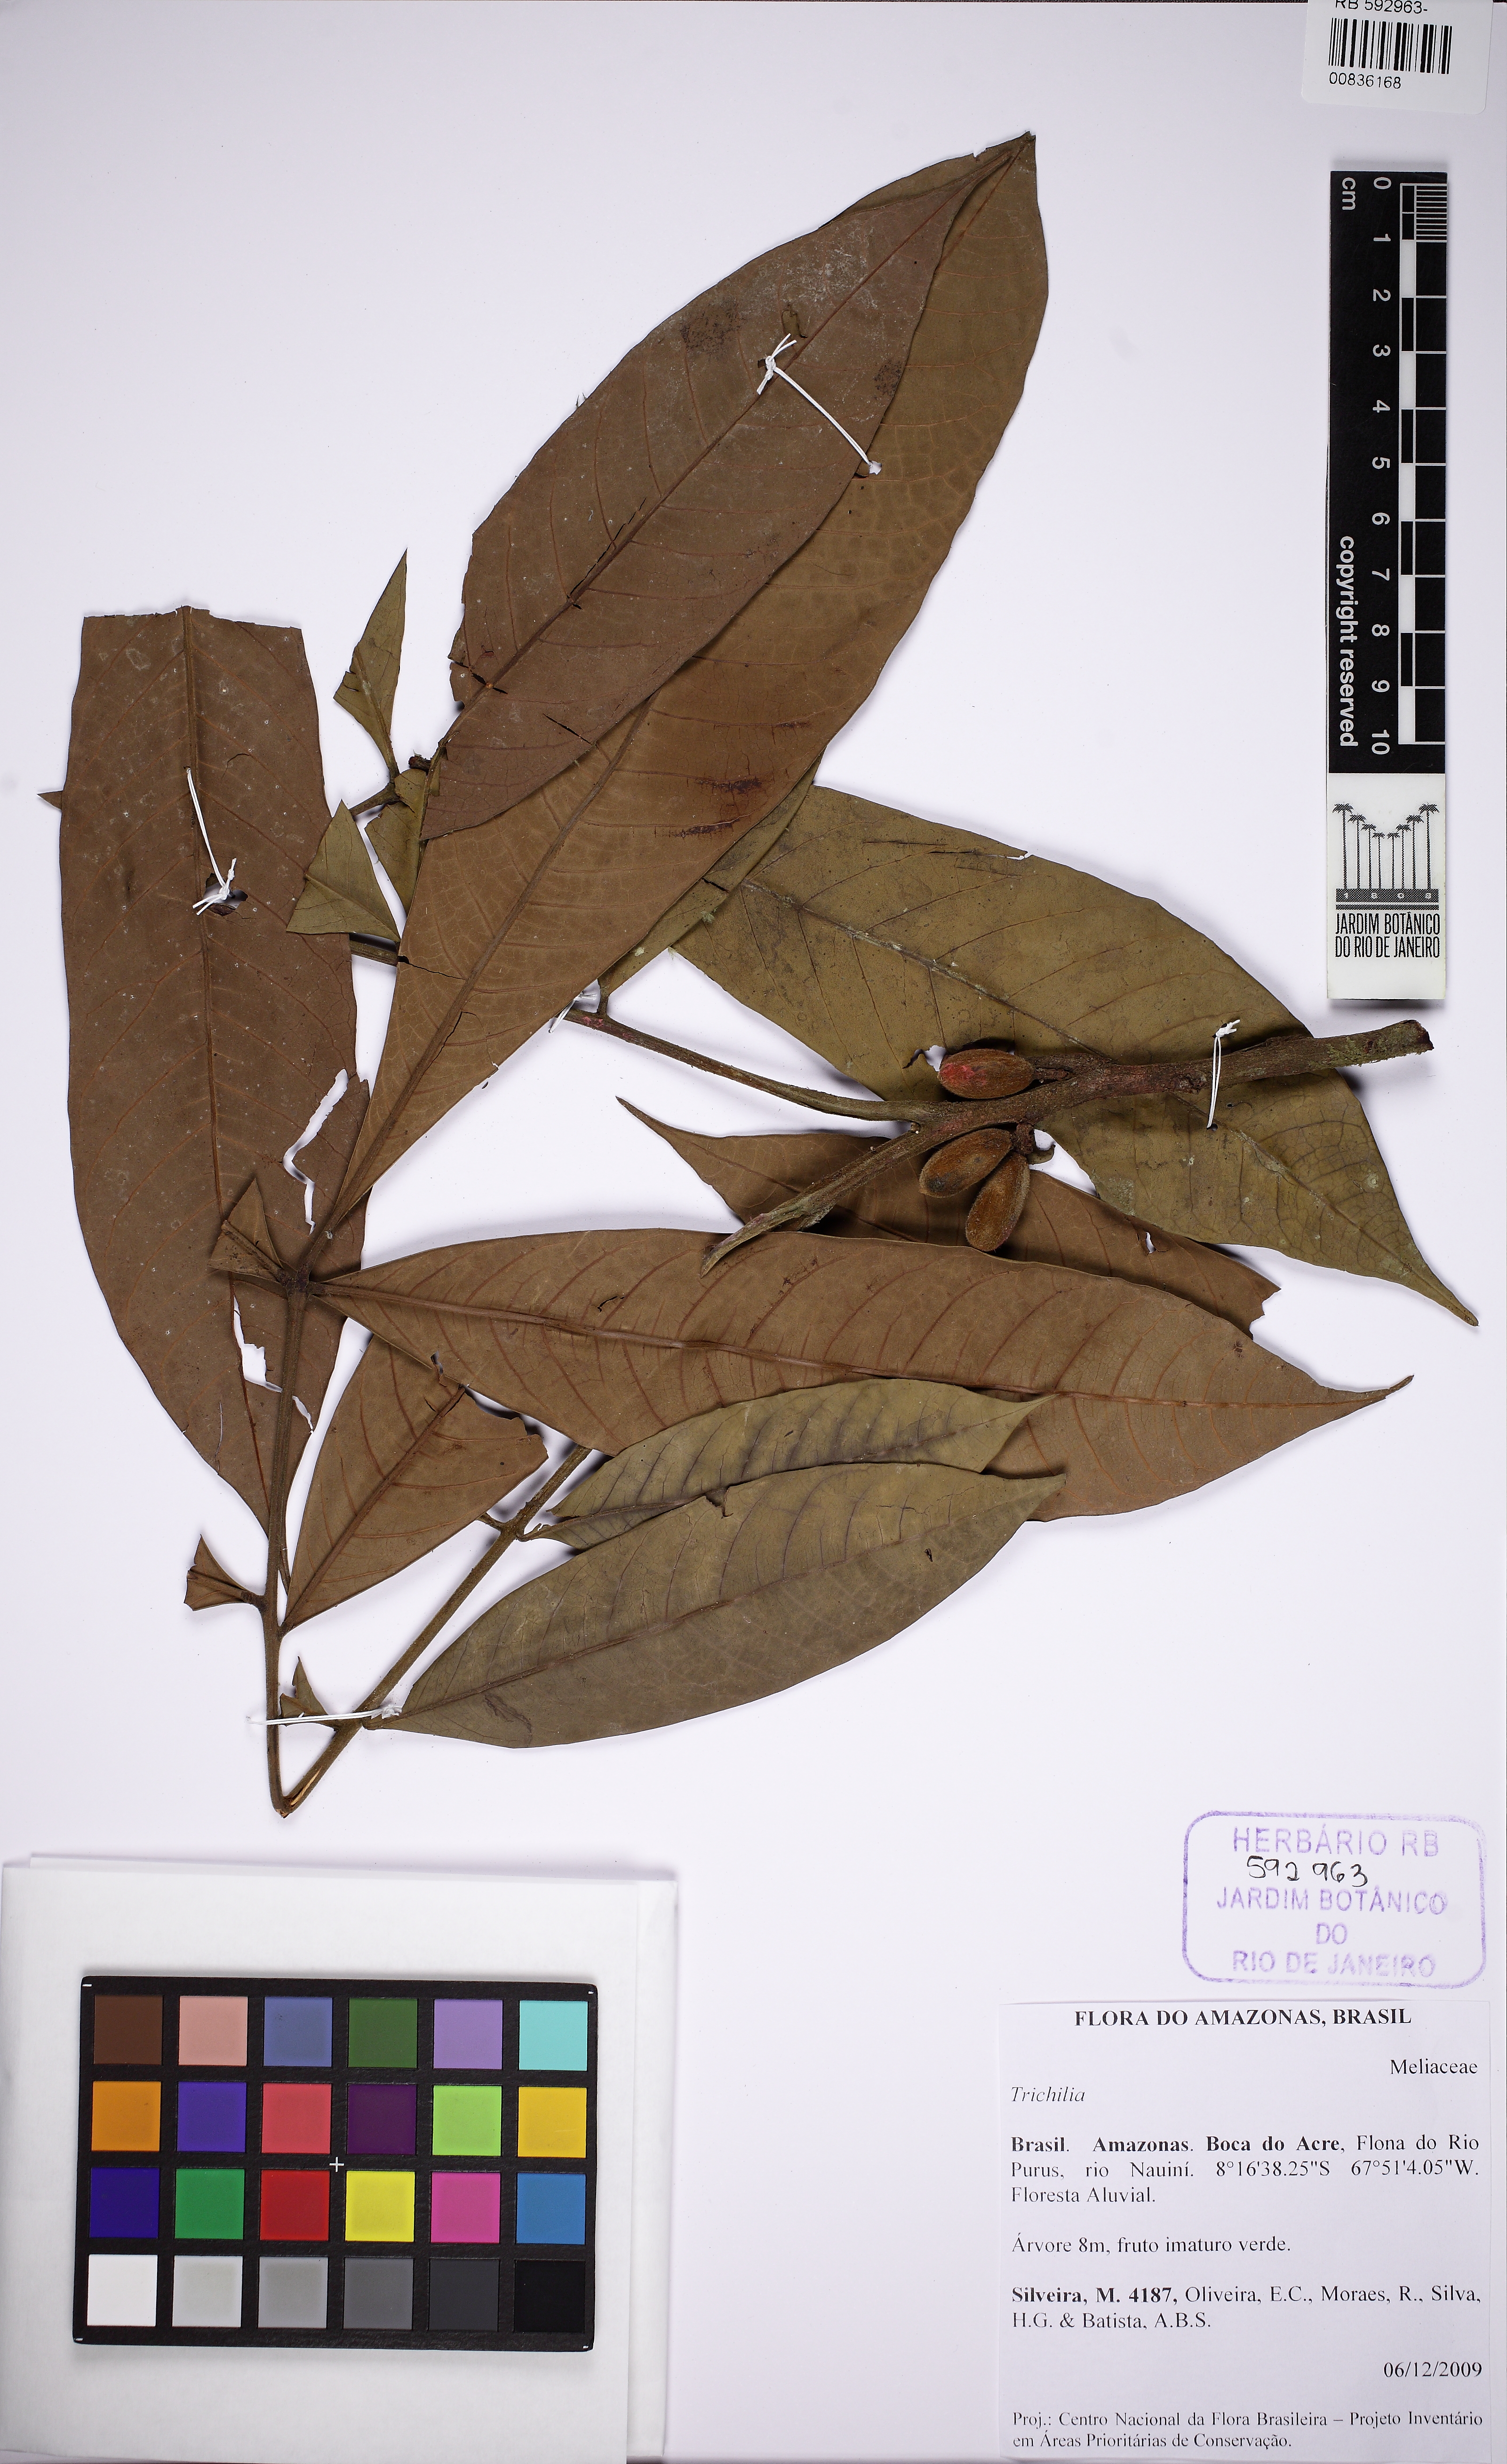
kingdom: Plantae
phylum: Tracheophyta
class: Magnoliopsida
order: Sapindales
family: Meliaceae
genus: Trichilia
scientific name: Trichilia
